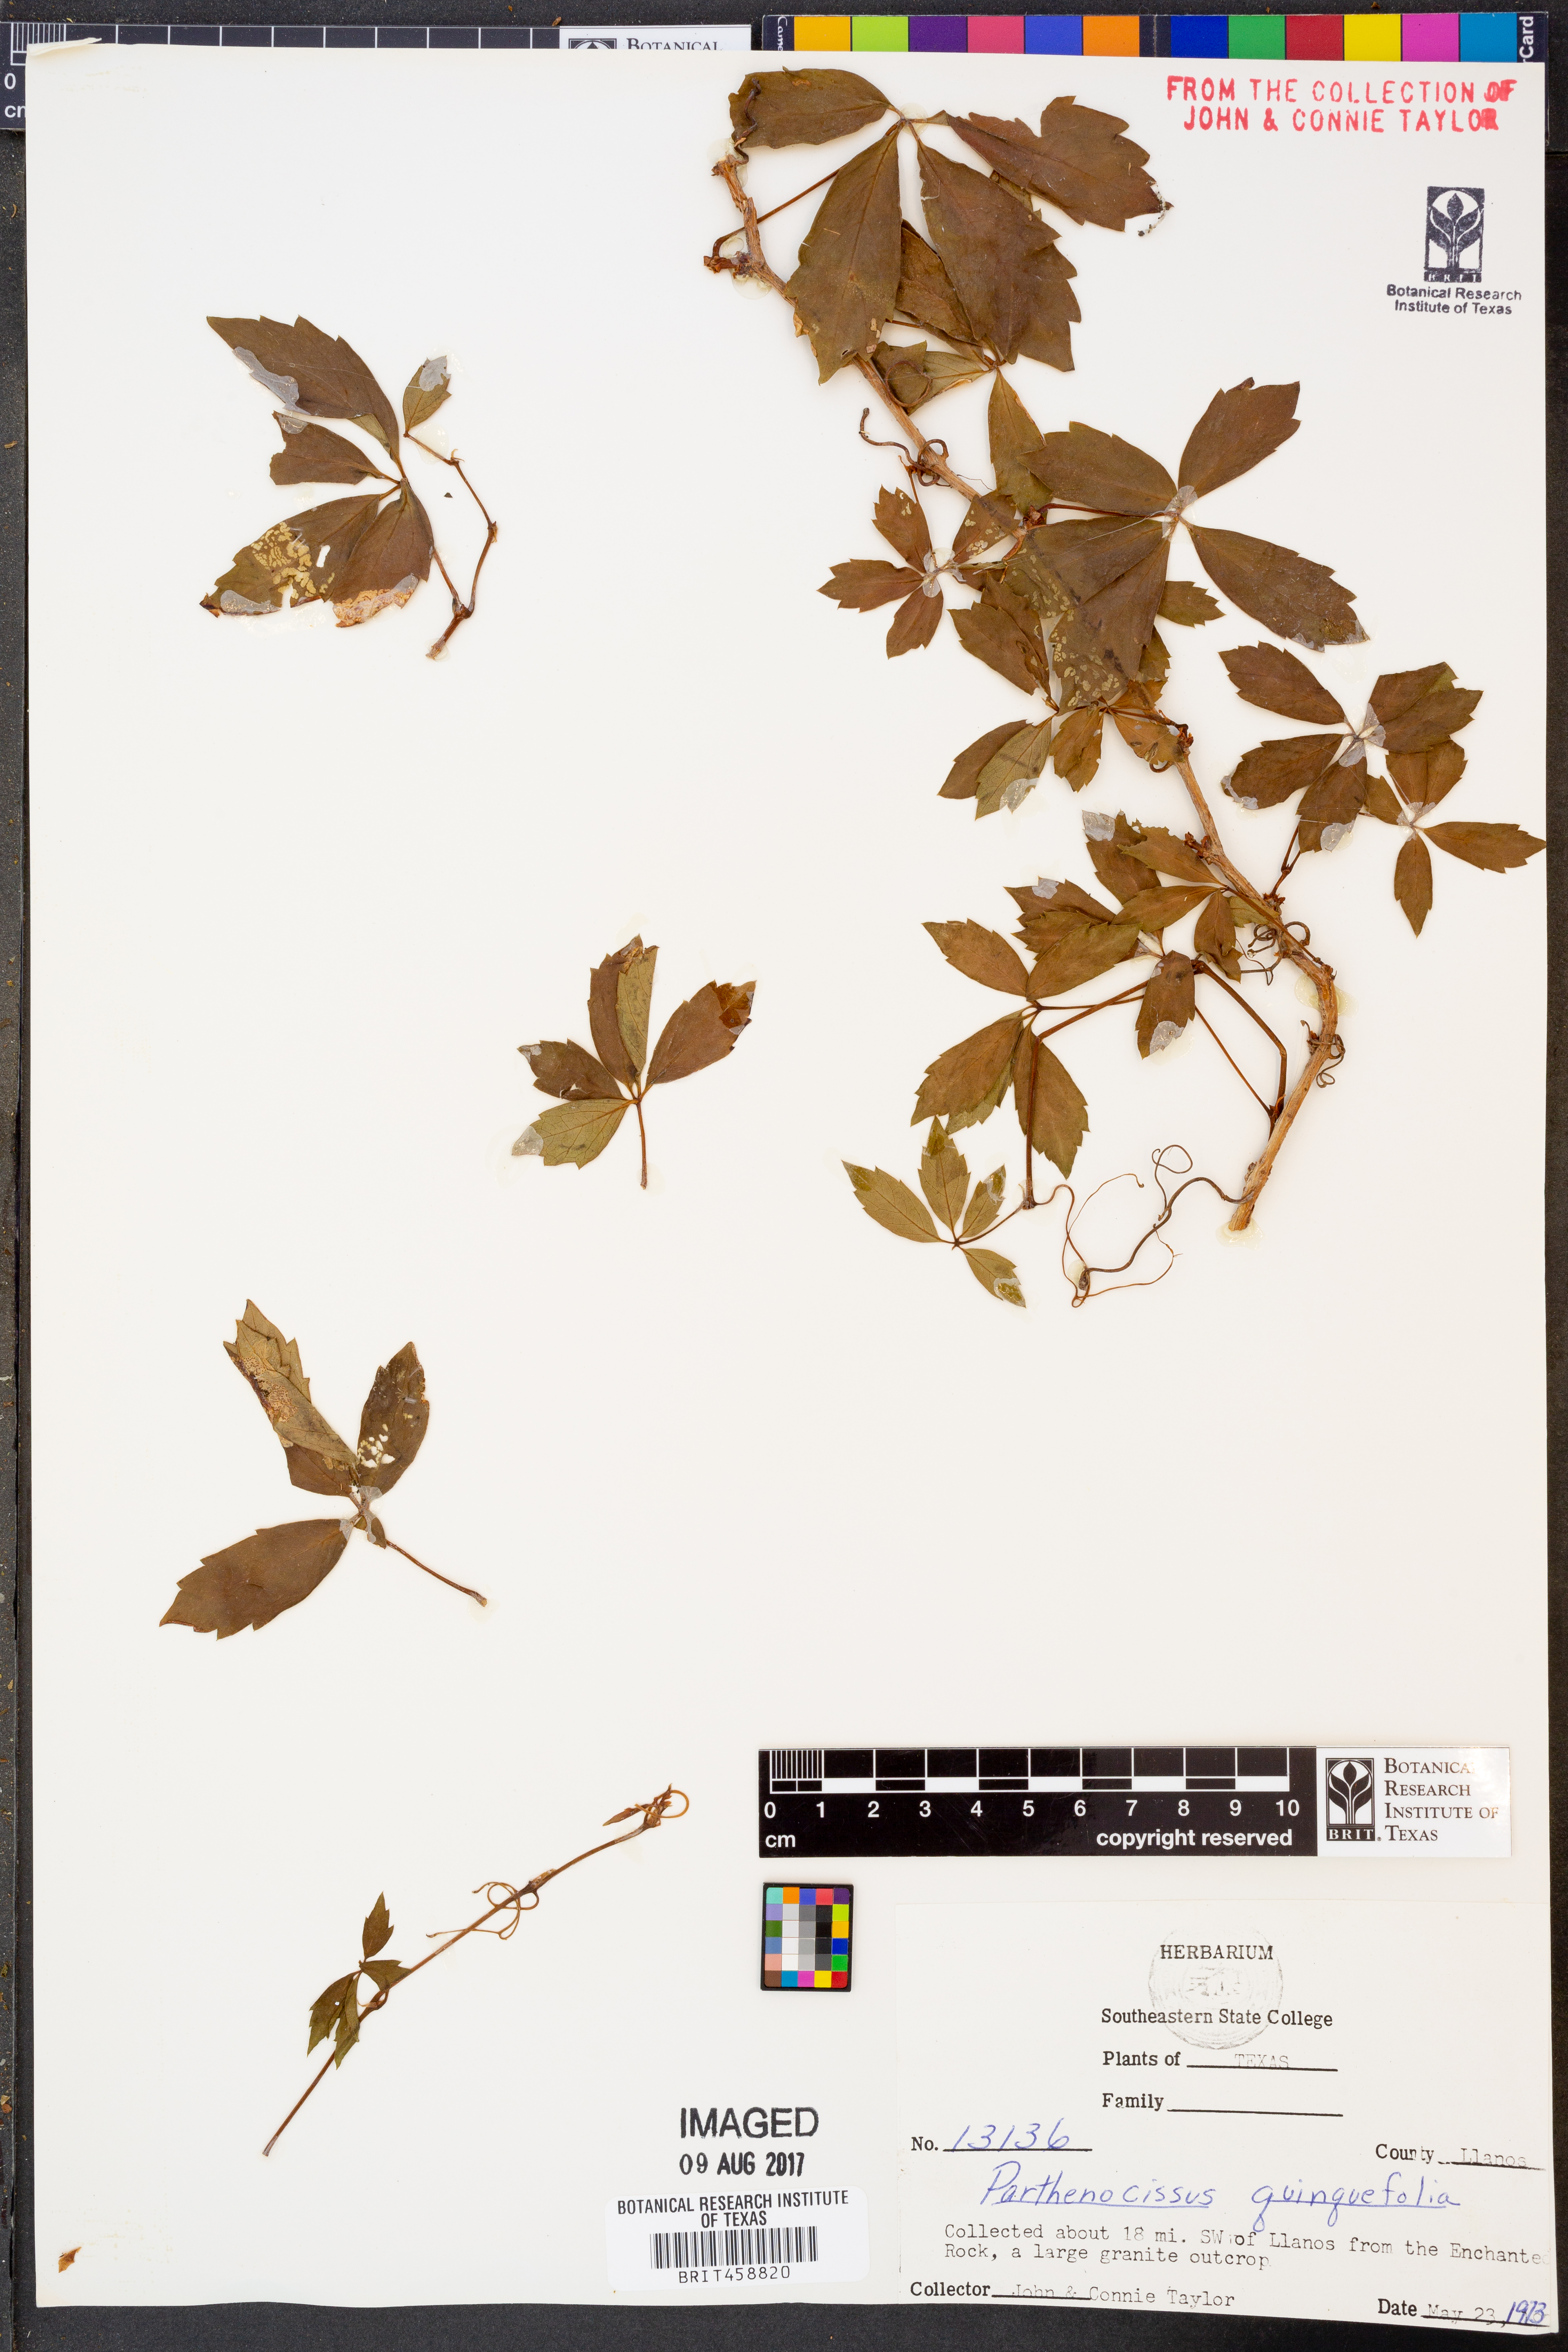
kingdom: Plantae
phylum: Tracheophyta
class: Magnoliopsida
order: Vitales
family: Vitaceae
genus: Parthenocissus
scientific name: Parthenocissus quinquefolia
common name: Virginia-creeper
